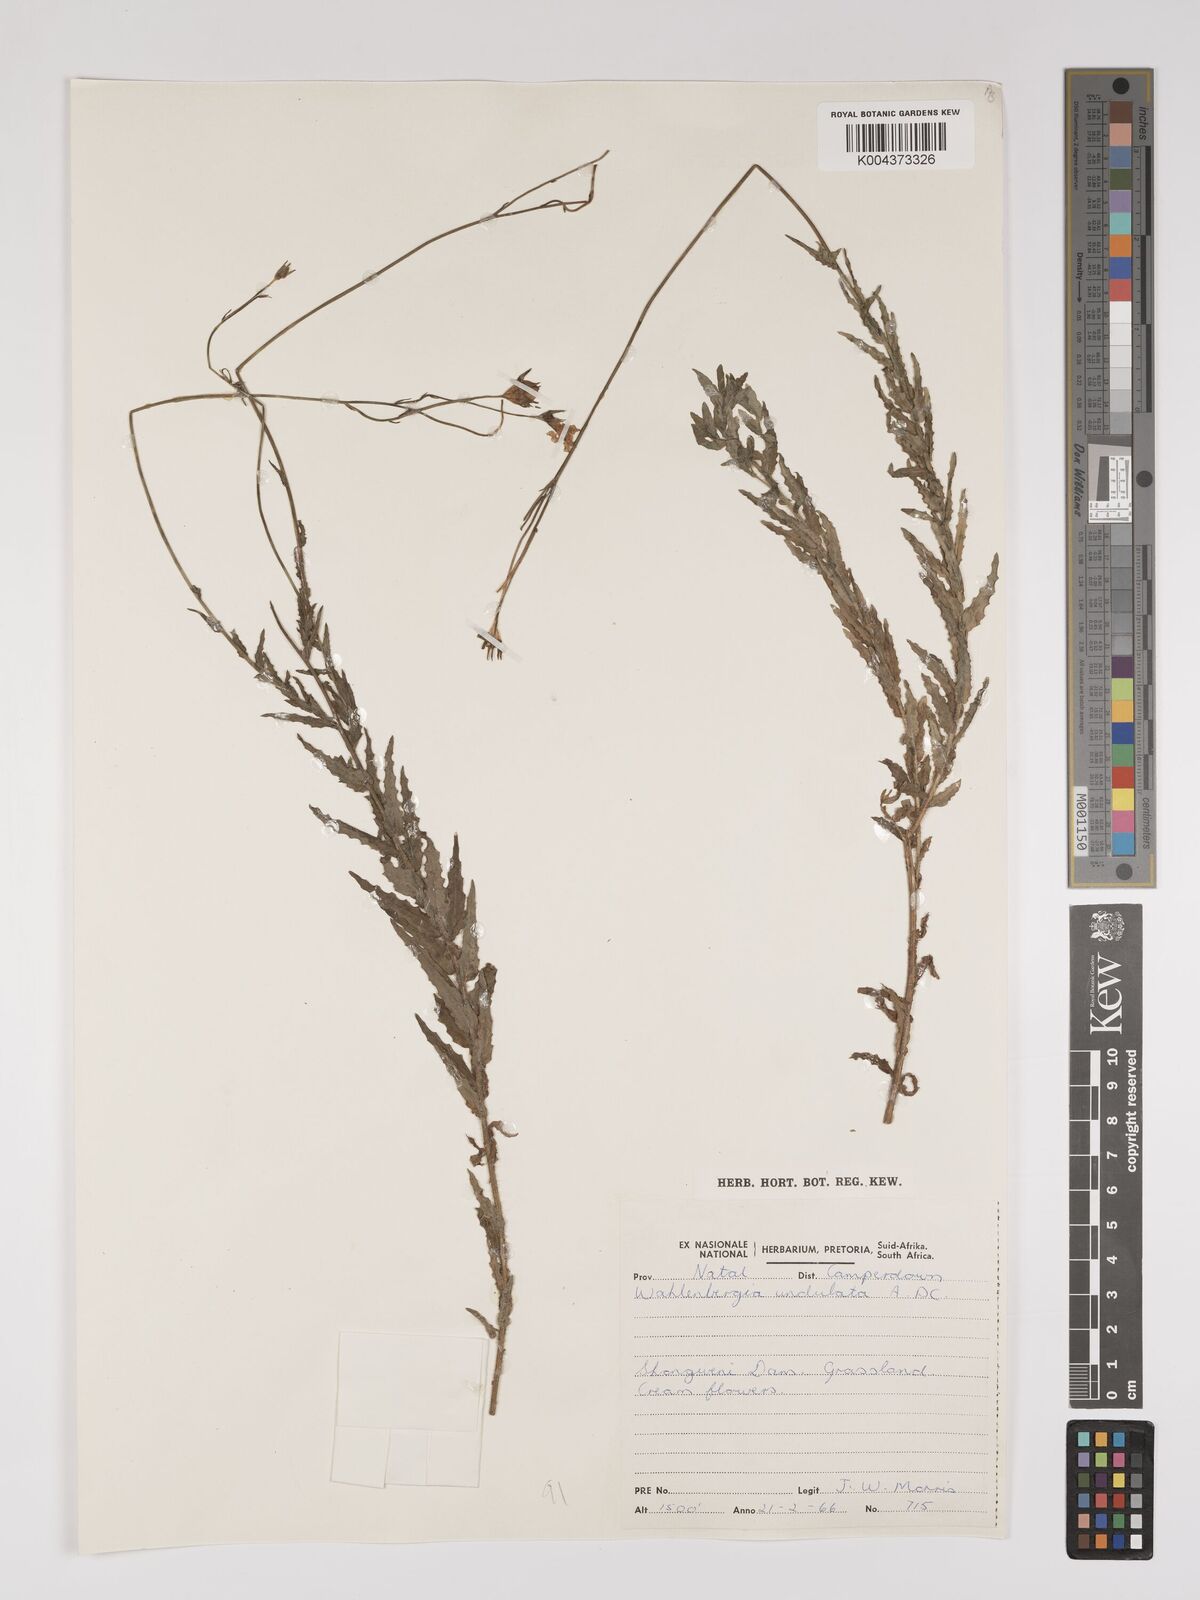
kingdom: Plantae
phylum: Tracheophyta
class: Magnoliopsida
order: Asterales
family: Campanulaceae
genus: Wahlenbergia
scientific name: Wahlenbergia undulata
